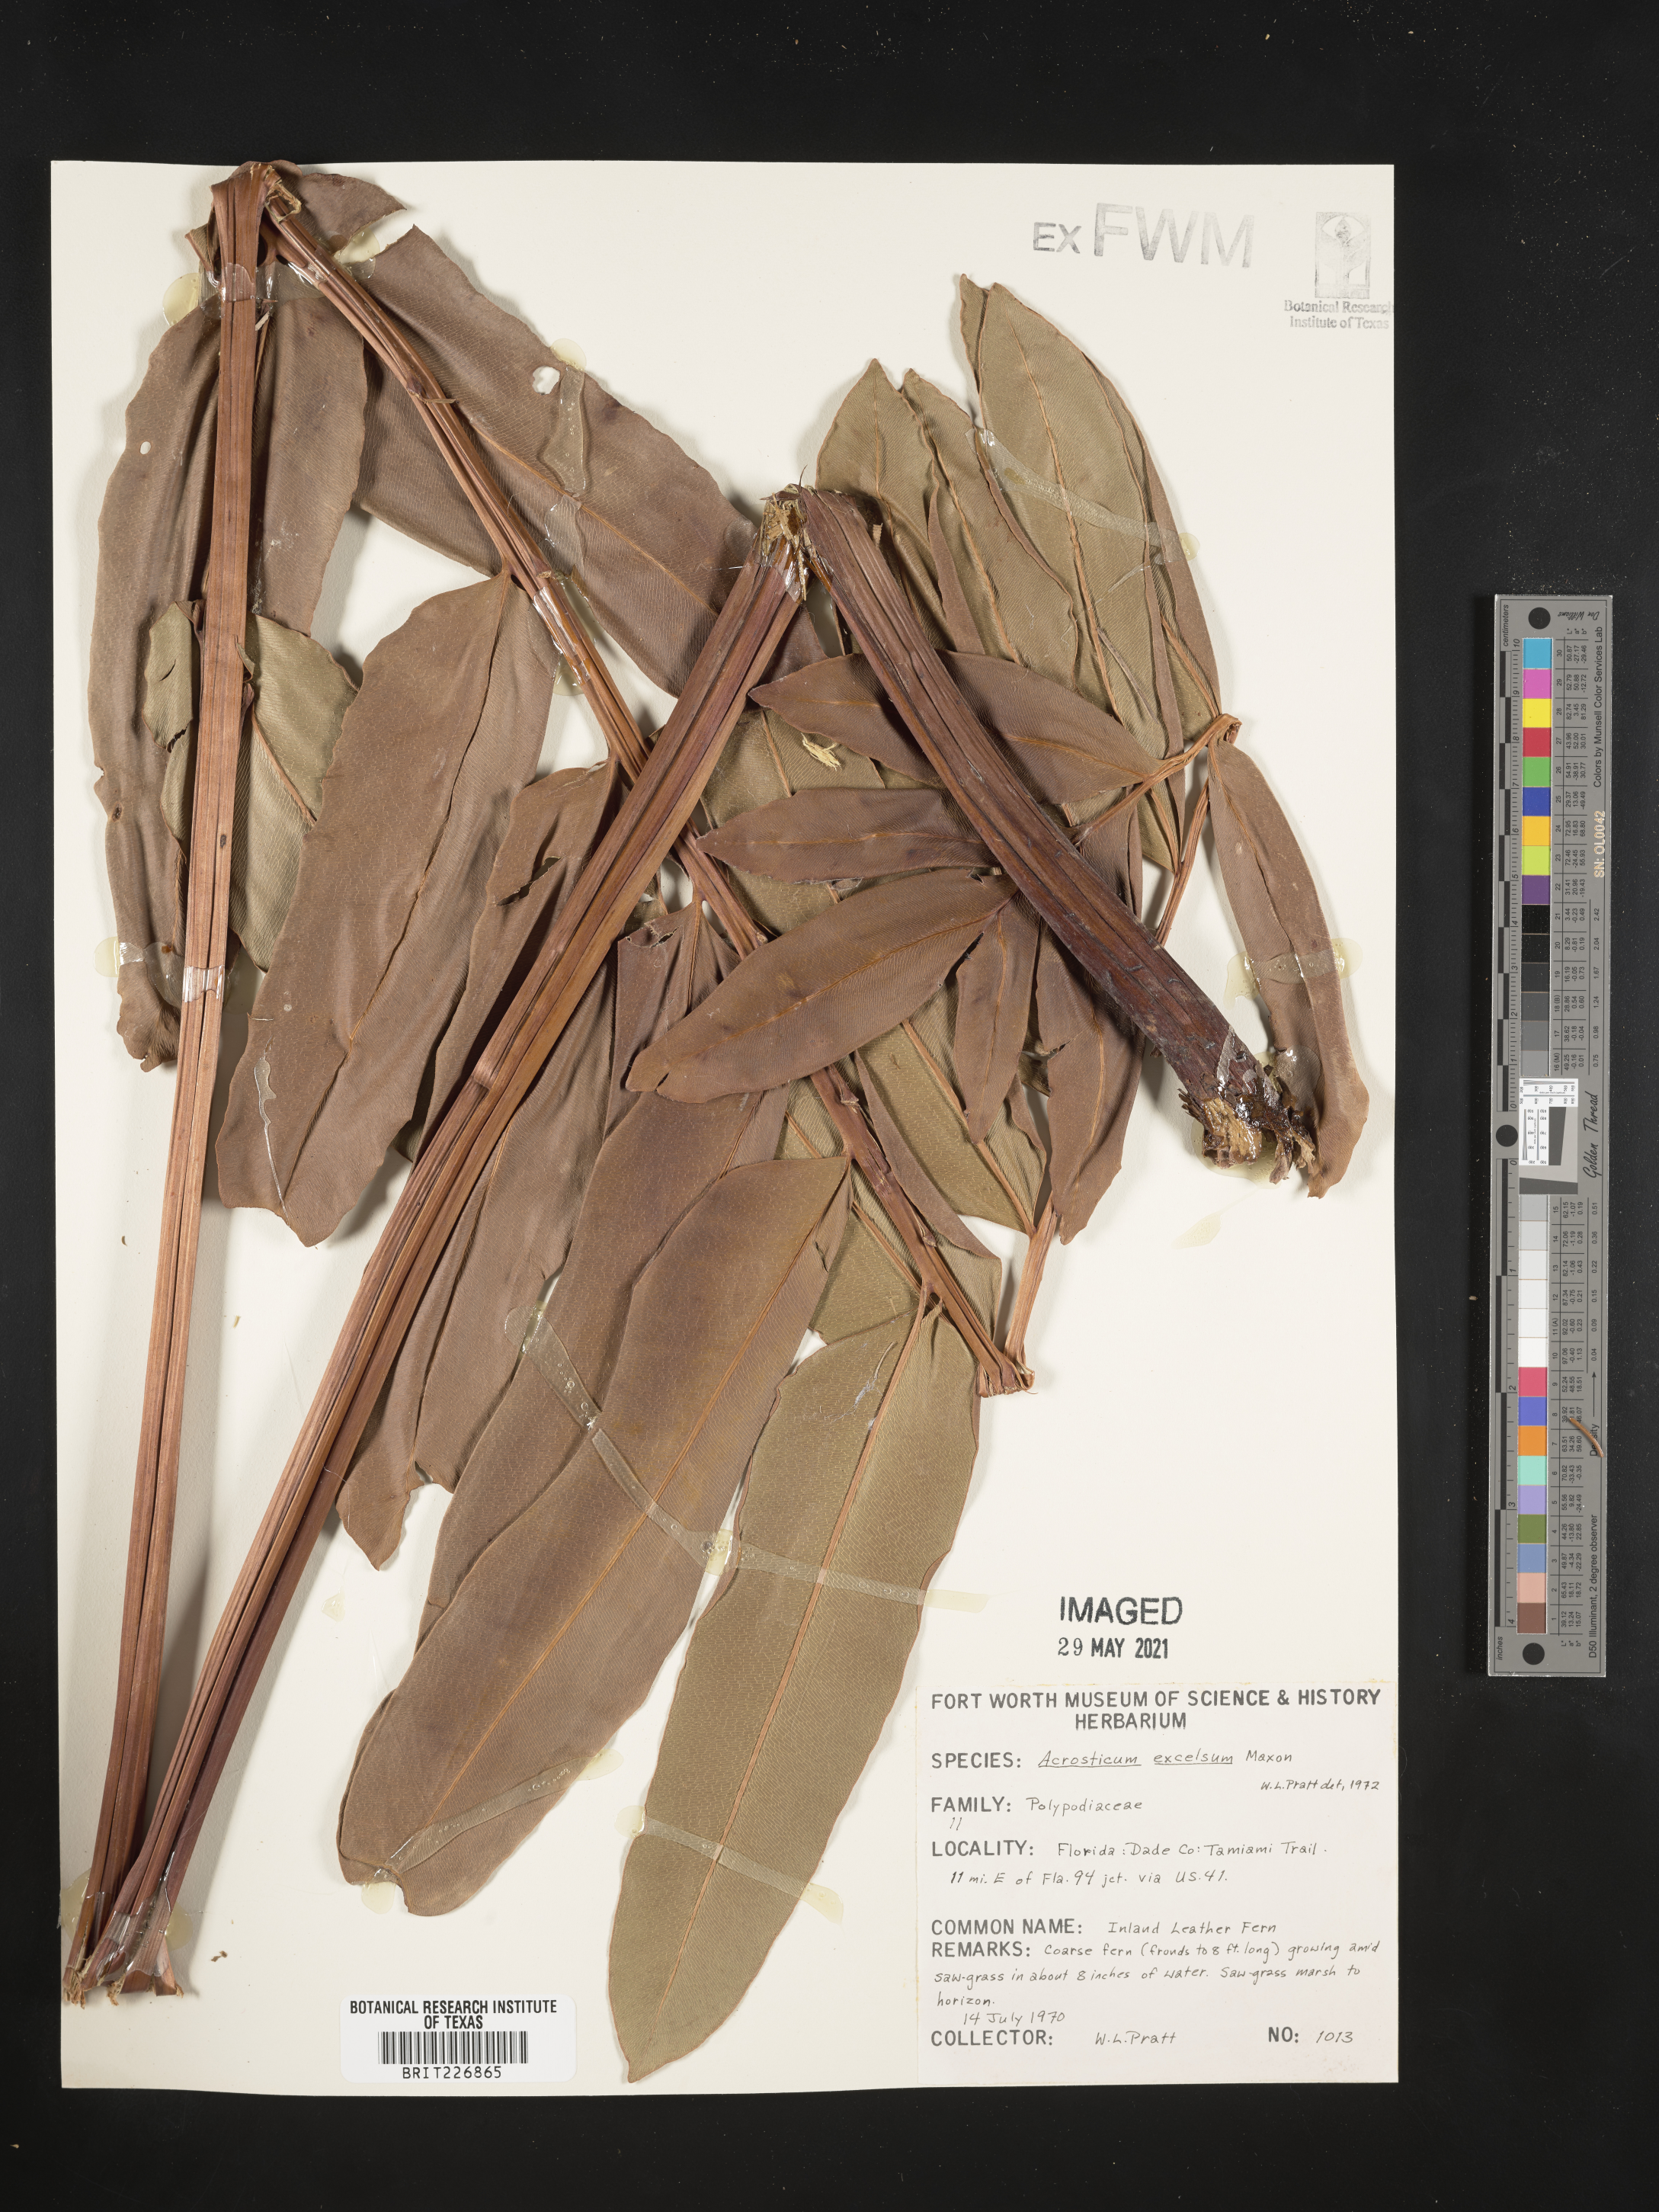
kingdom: Plantae
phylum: Tracheophyta
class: Polypodiopsida
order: Polypodiales
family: Pteridaceae
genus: Acrostichum
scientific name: Acrostichum danaeifolium
